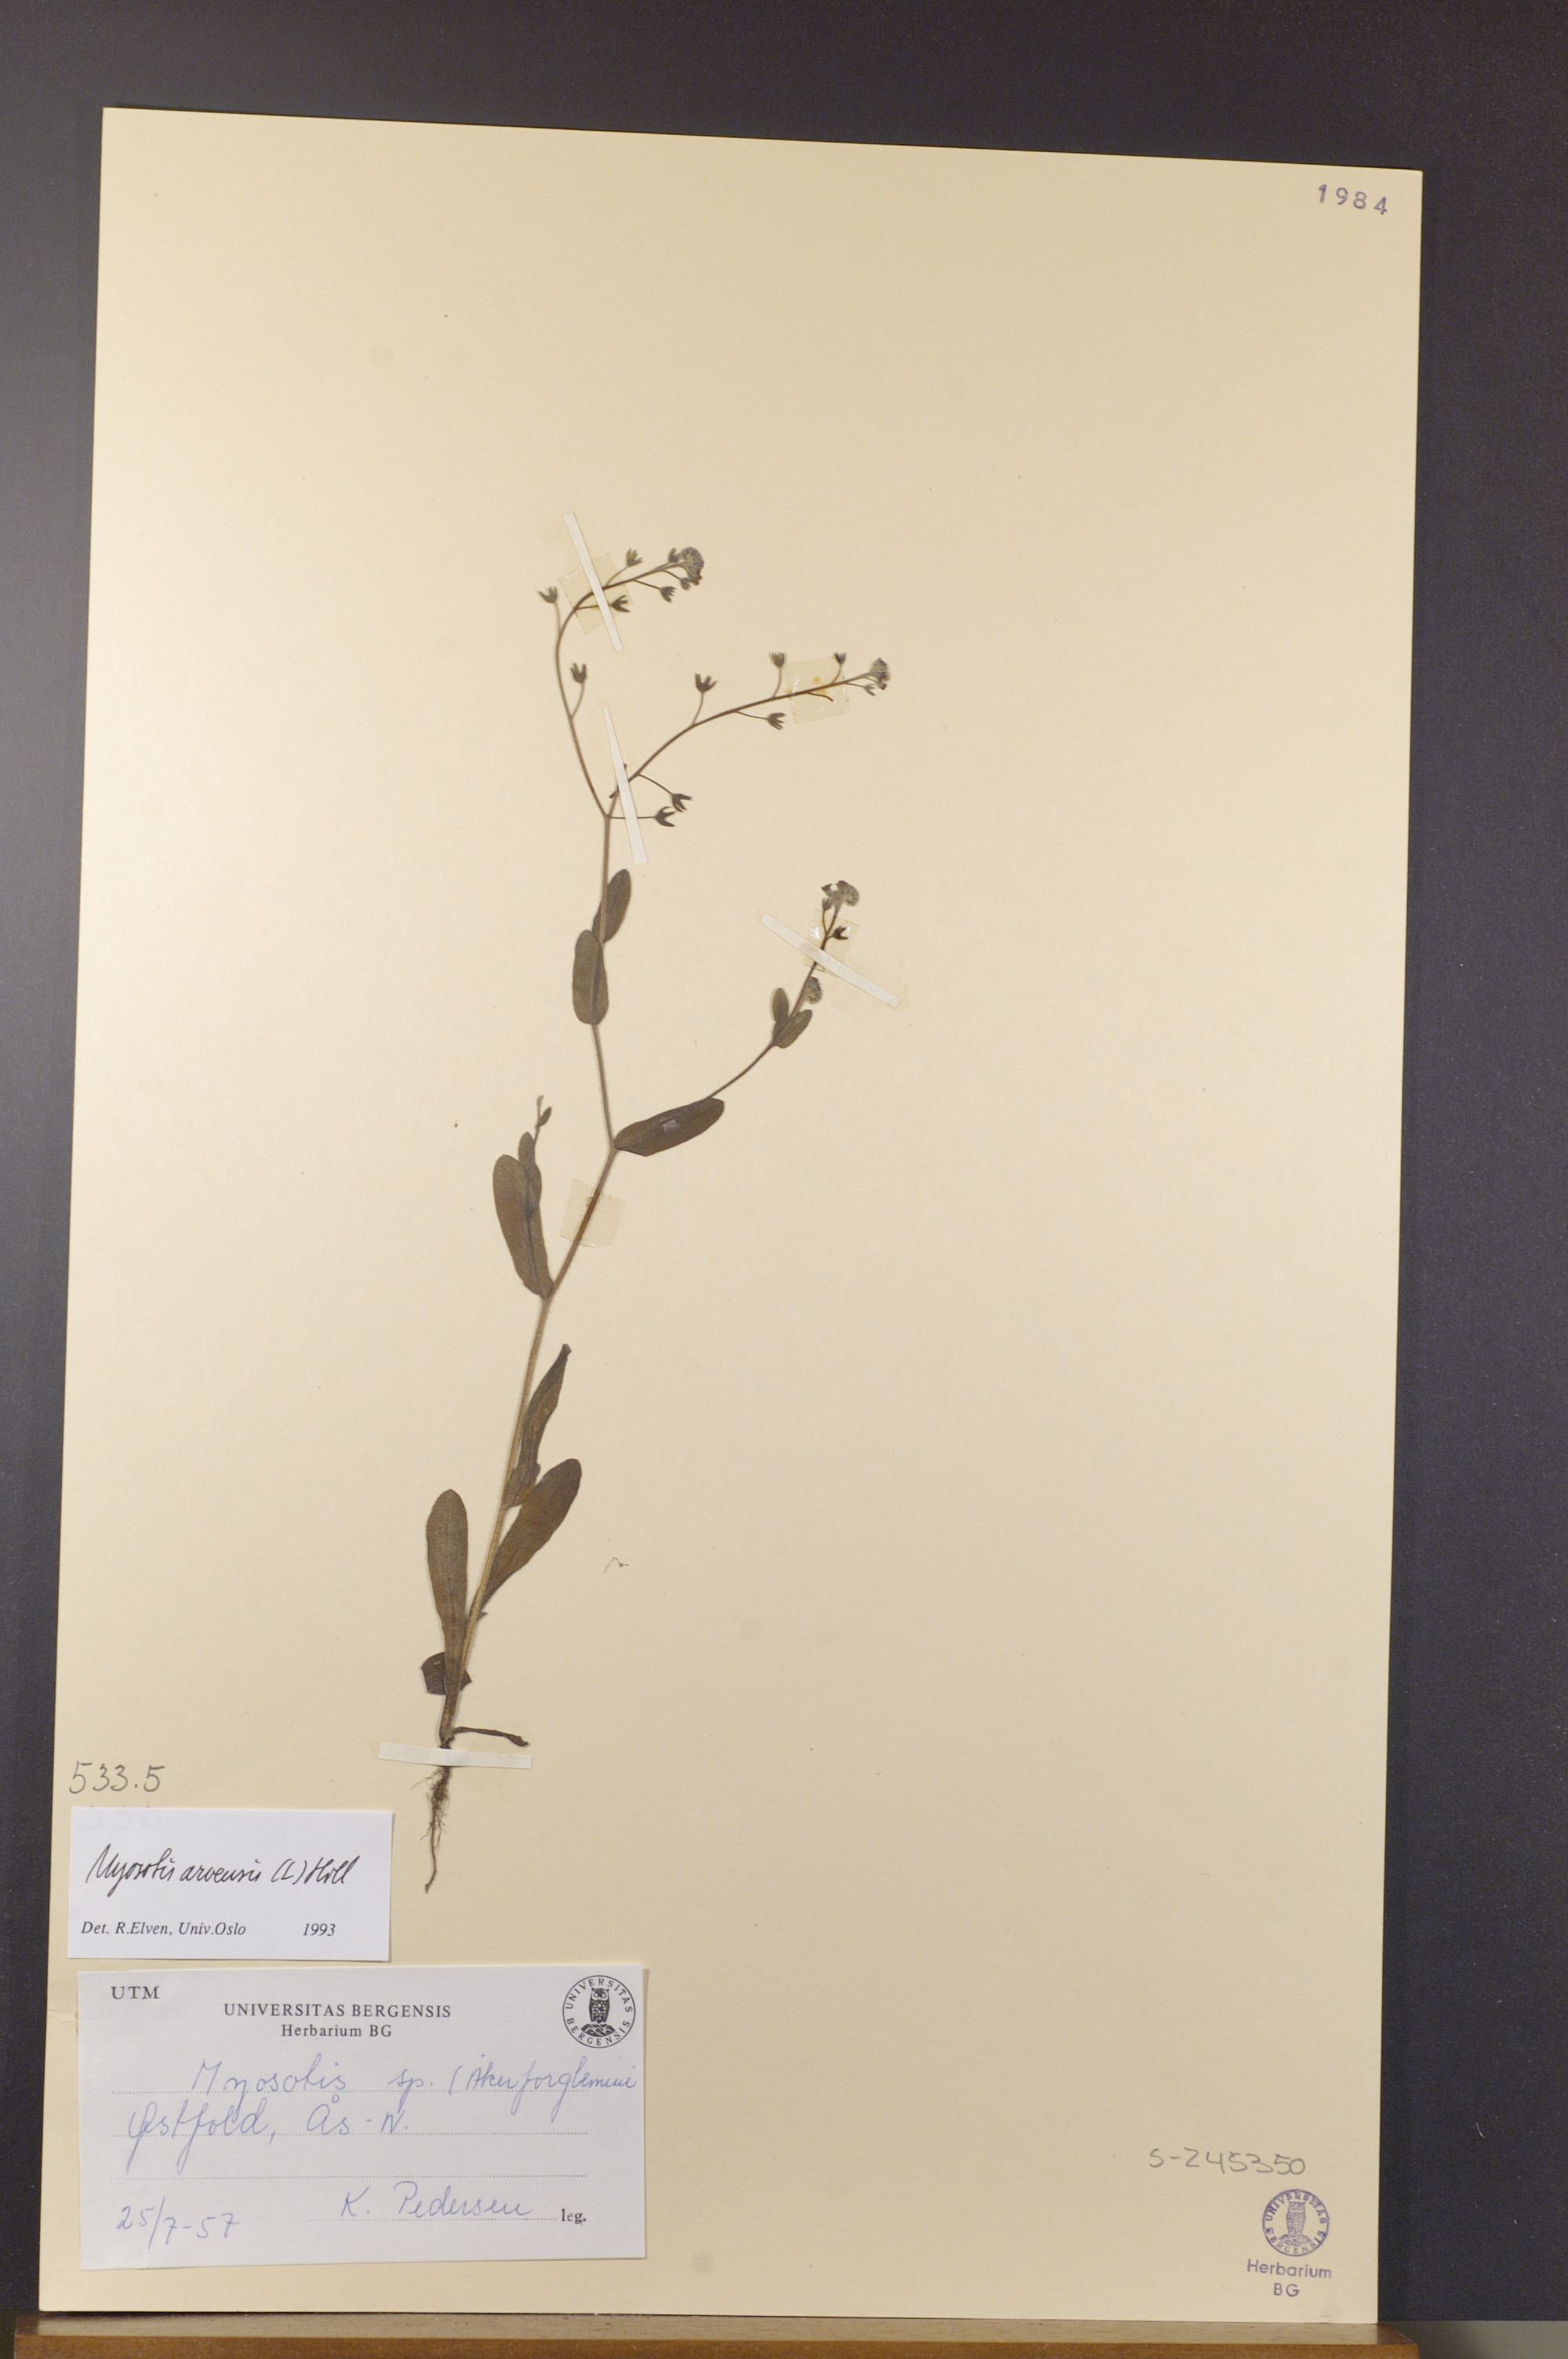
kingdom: Plantae
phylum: Tracheophyta
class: Magnoliopsida
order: Boraginales
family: Boraginaceae
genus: Myosotis
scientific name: Myosotis arvensis
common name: Field forget-me-not
